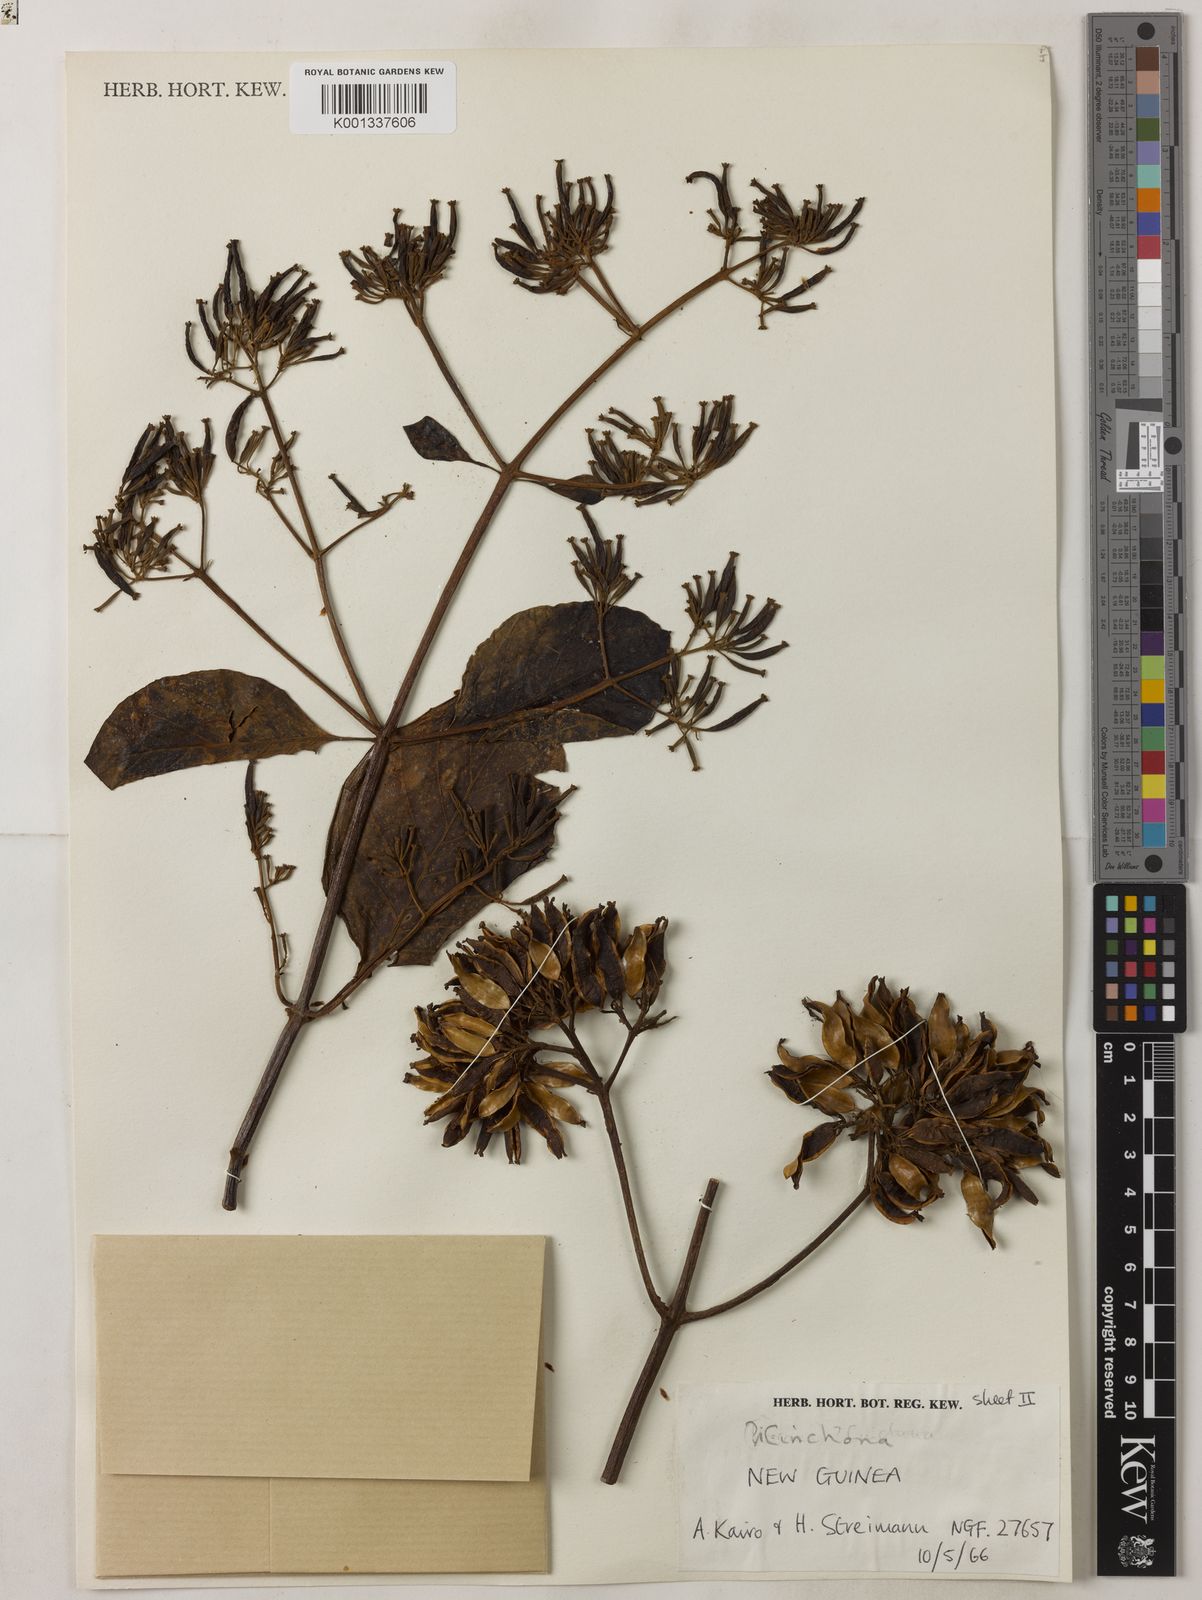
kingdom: Plantae
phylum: Tracheophyta
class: Magnoliopsida
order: Gentianales
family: Rubiaceae
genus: Cinchona
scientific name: Cinchona pubescens
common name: Quinine
